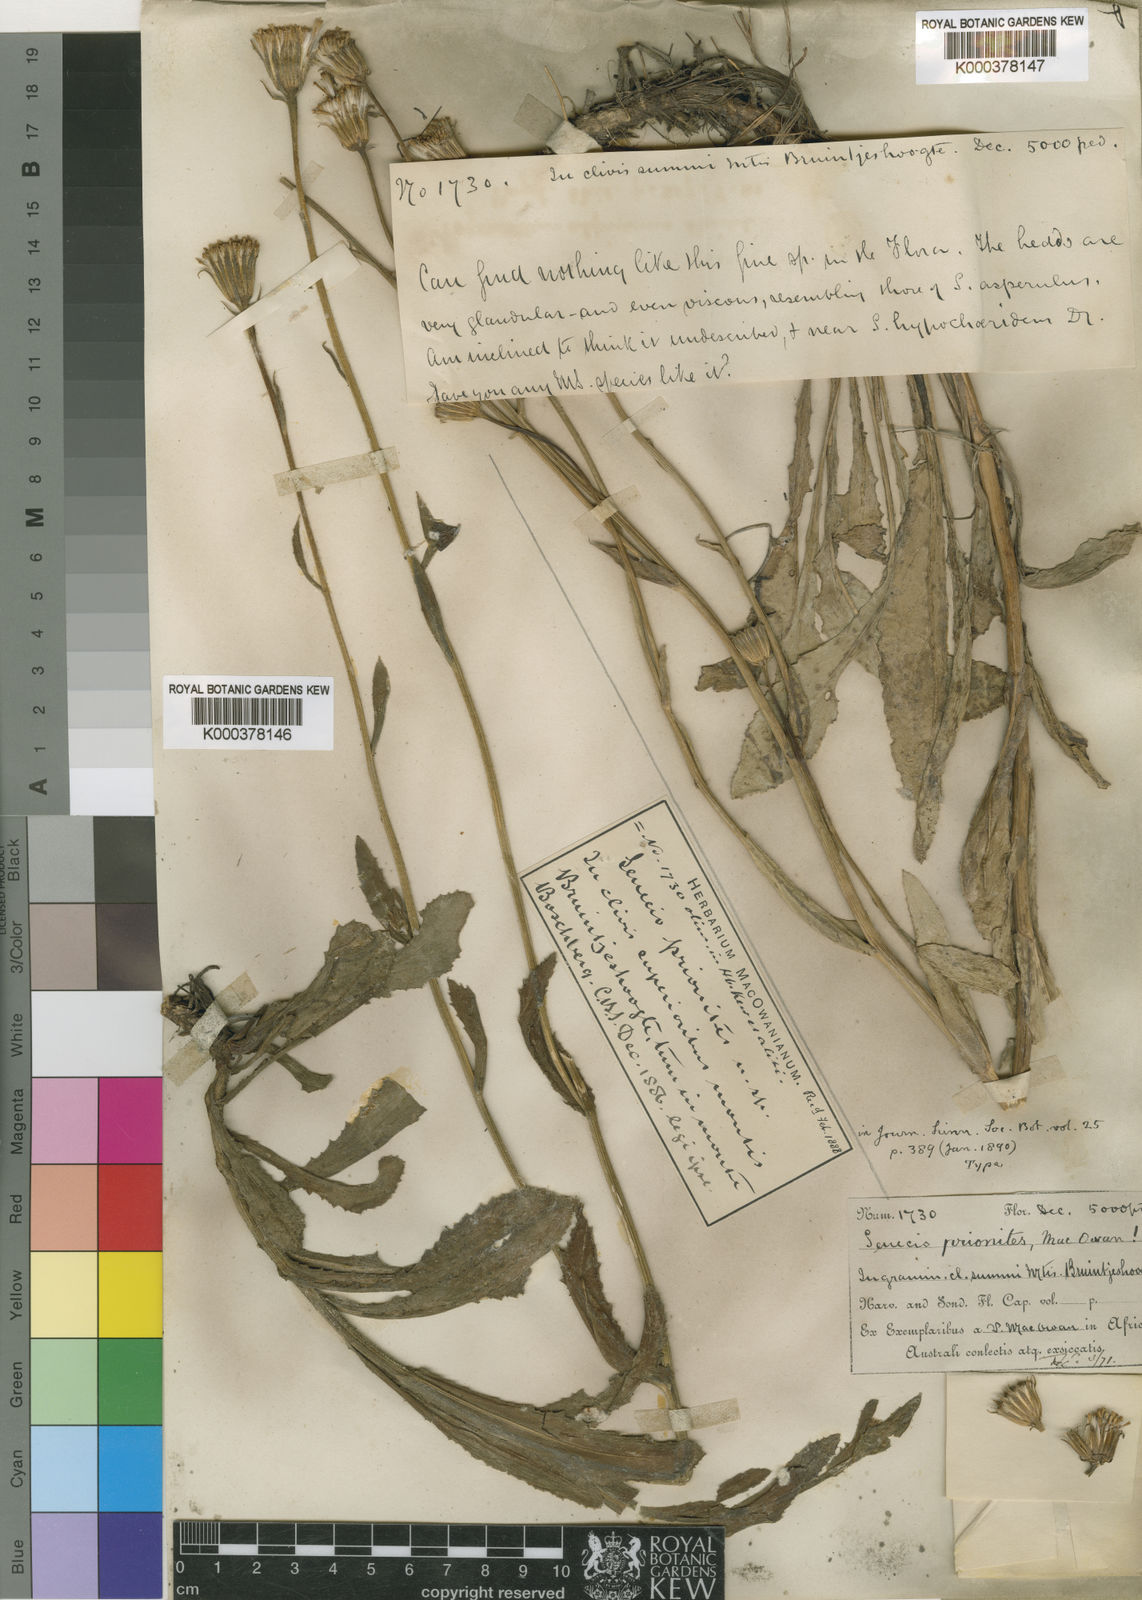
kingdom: Plantae
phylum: Tracheophyta
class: Magnoliopsida
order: Asterales
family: Asteraceae
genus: Senecio
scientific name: Senecio hypochoerideus
